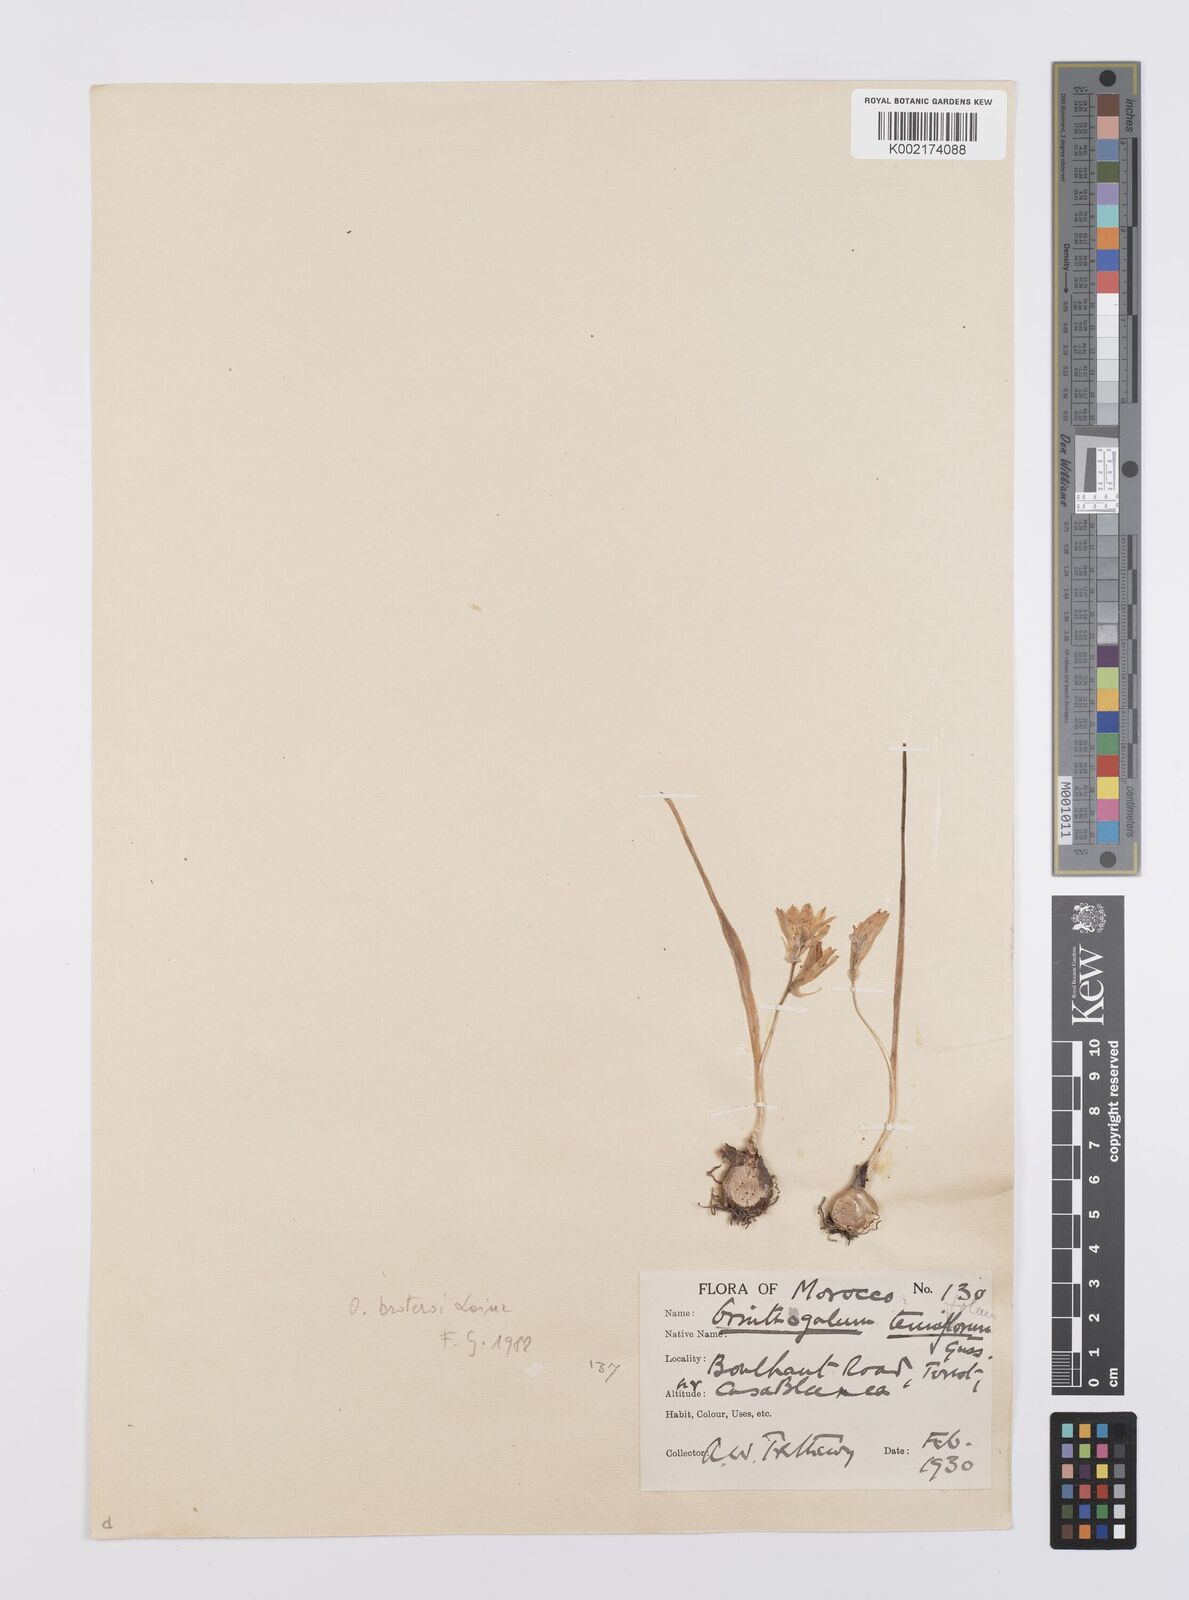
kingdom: Plantae
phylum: Tracheophyta
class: Liliopsida
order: Asparagales
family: Asparagaceae
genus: Ornithogalum
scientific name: Ornithogalum broteroi
